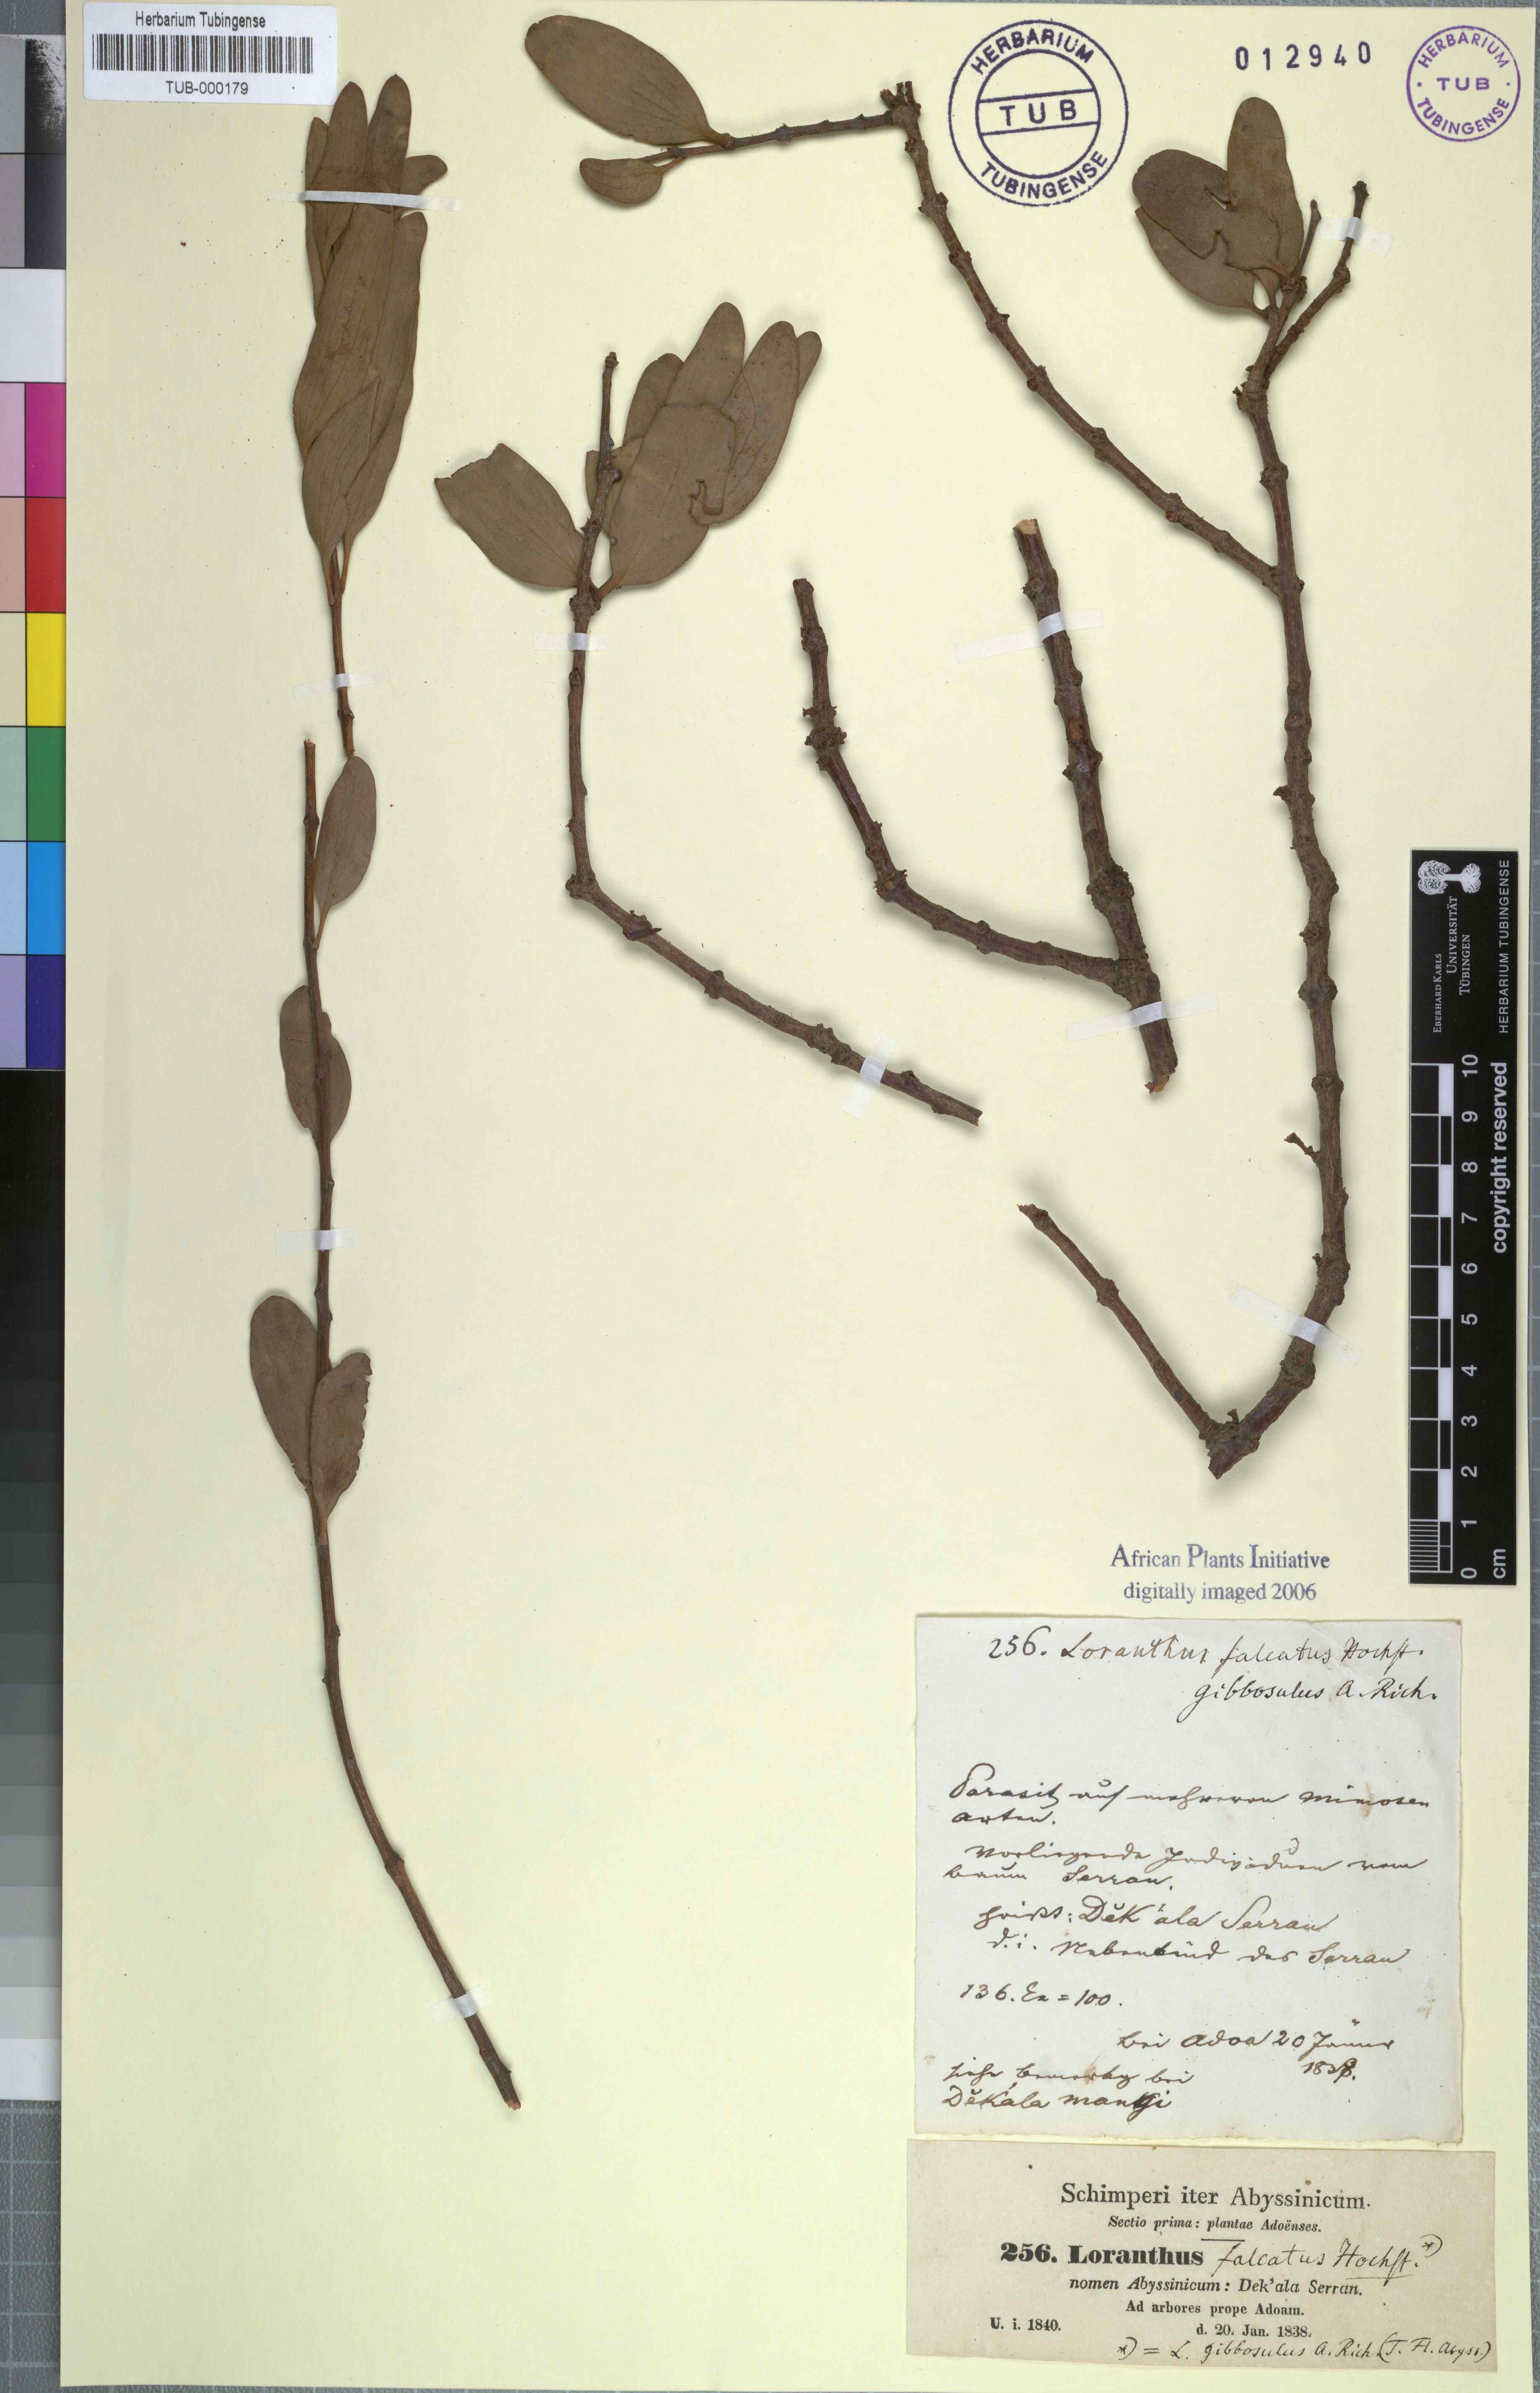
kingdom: Plantae
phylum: Tracheophyta
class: Magnoliopsida
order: Santalales
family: Loranthaceae
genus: Plicosepalus
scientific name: Plicosepalus acaciae
